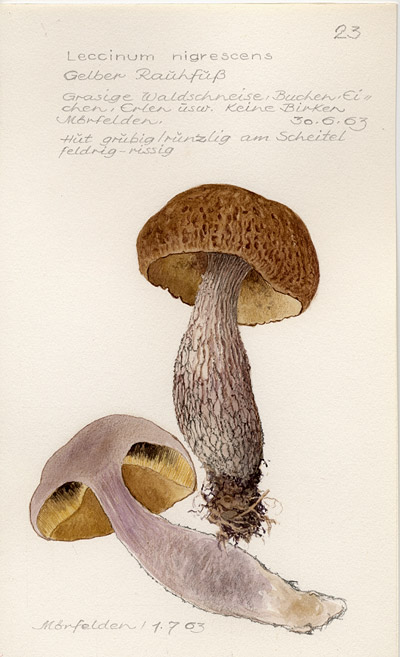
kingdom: Fungi
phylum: Basidiomycota
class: Agaricomycetes
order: Boletales
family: Boletaceae
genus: Leccinellum
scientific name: Leccinellum crocipodium
